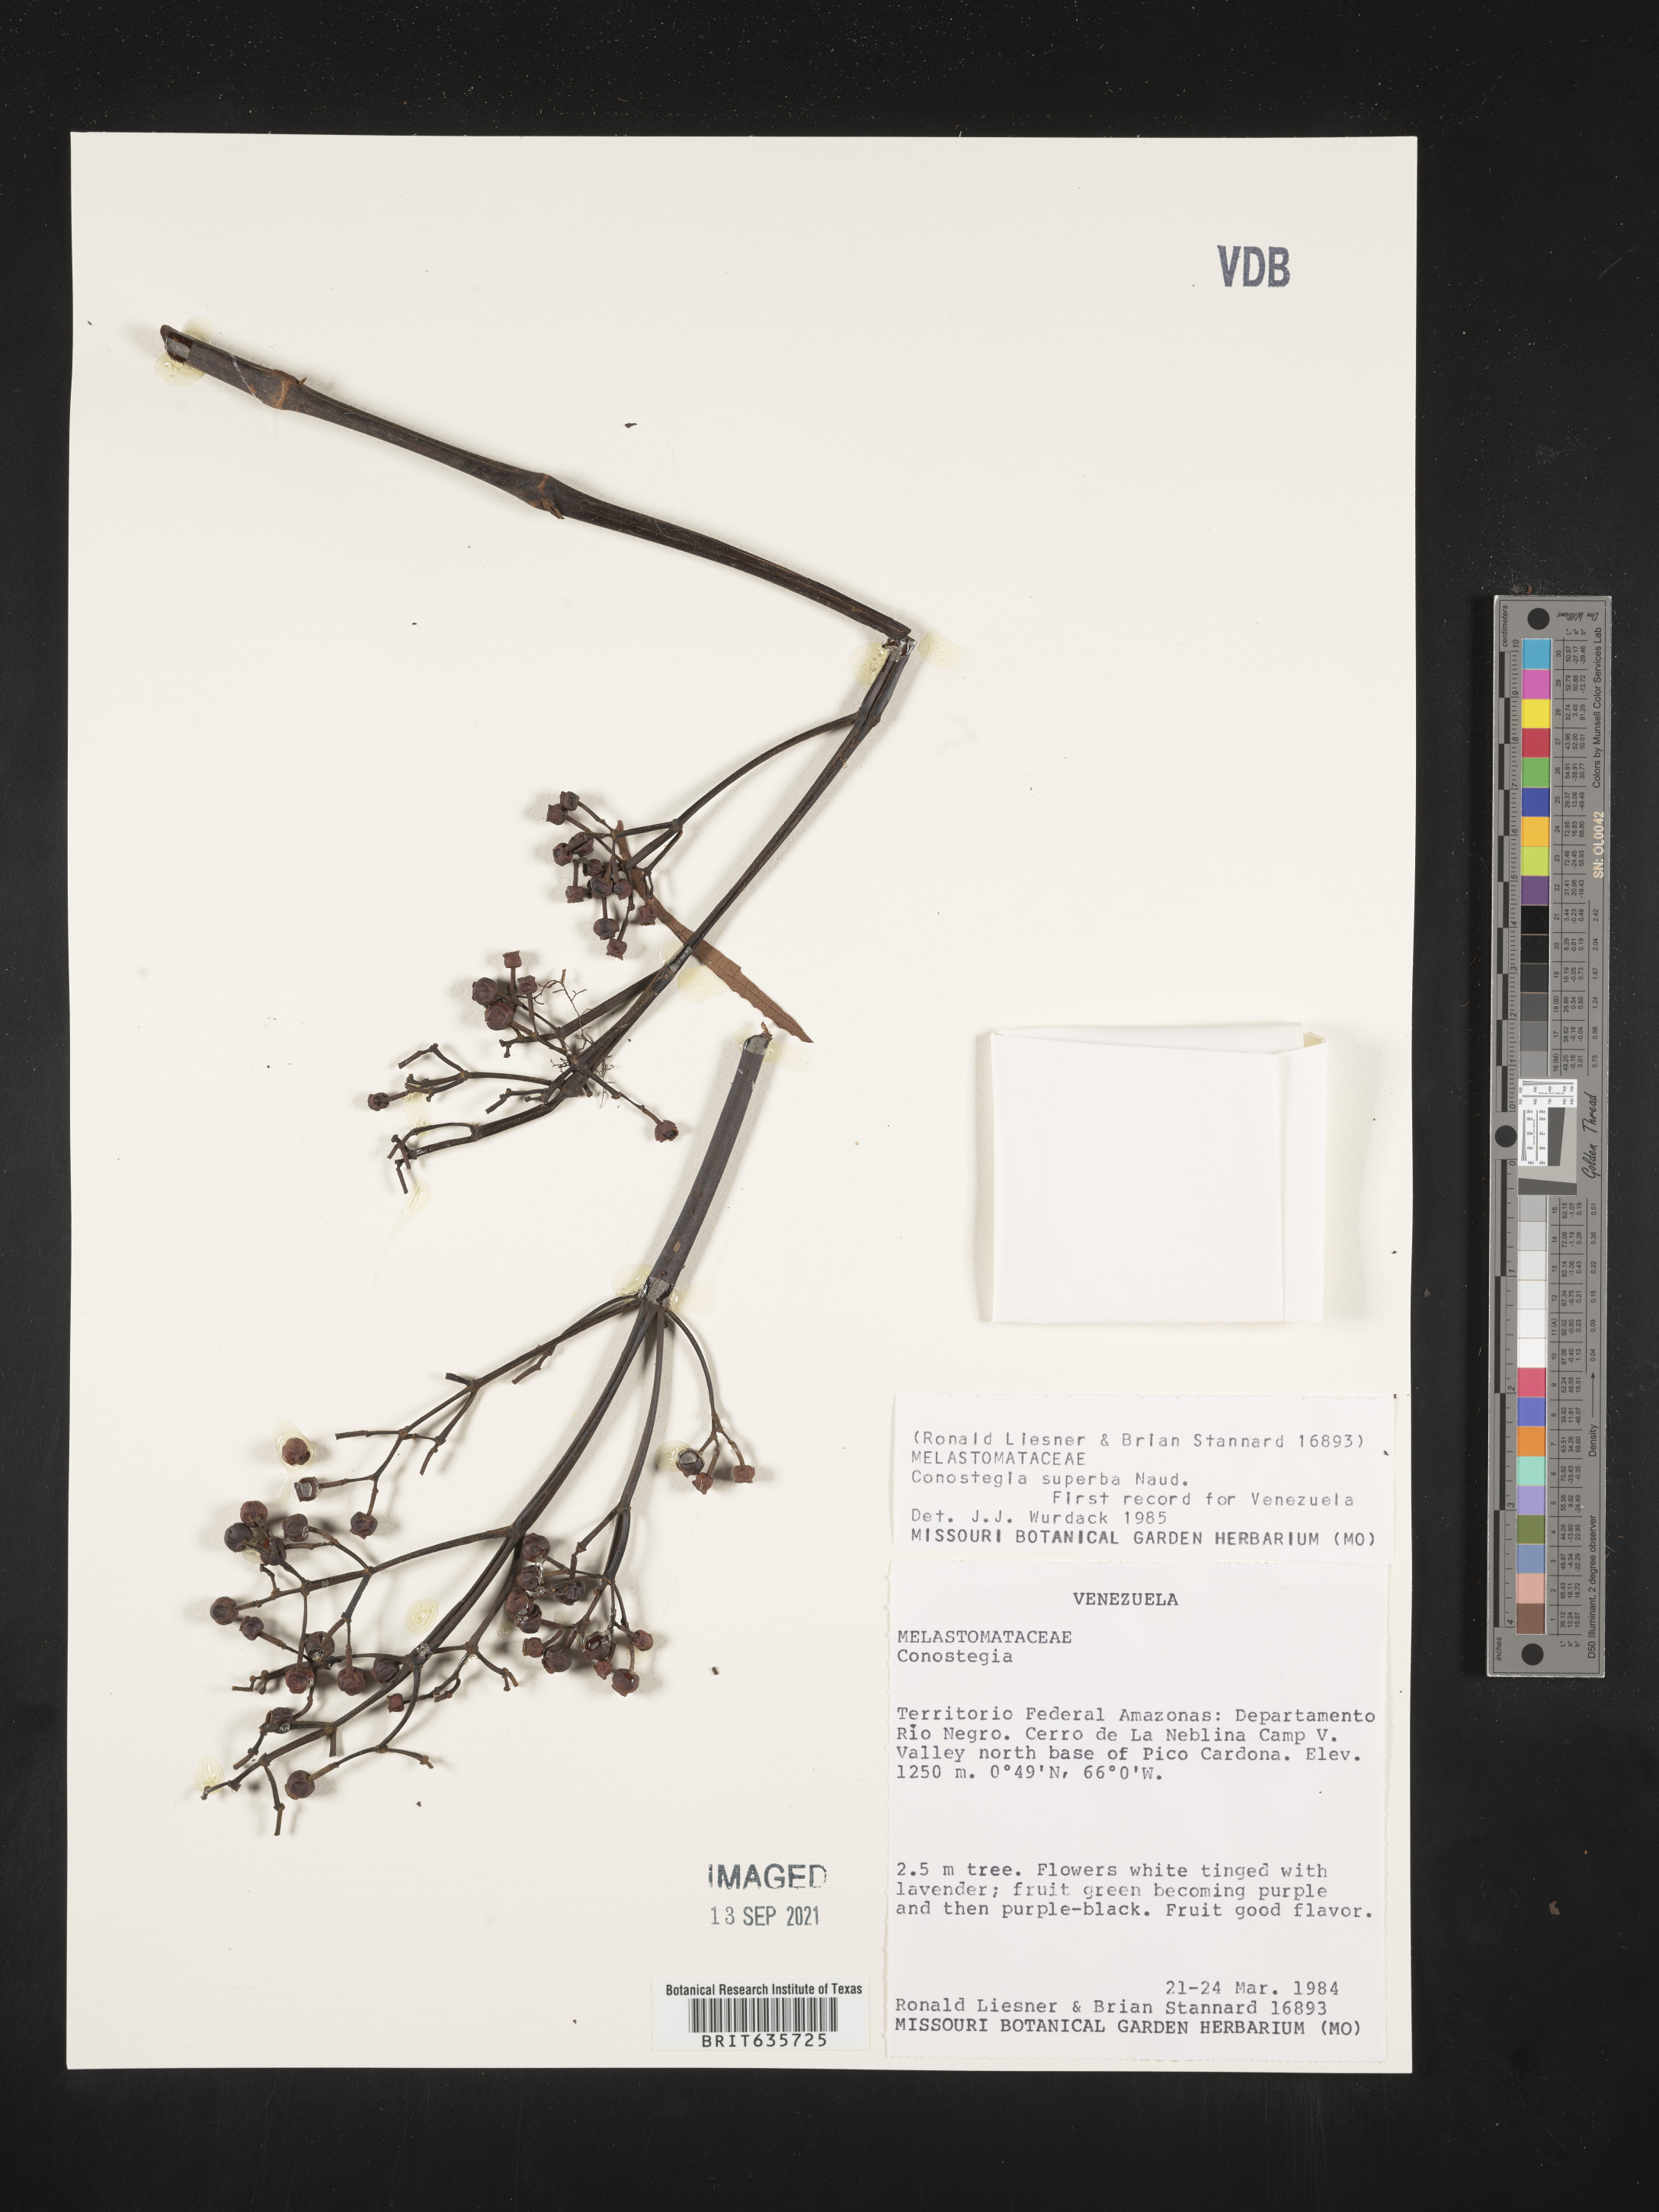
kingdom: Plantae
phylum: Tracheophyta
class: Magnoliopsida
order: Myrtales
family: Melastomataceae
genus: Miconia
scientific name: Miconia
